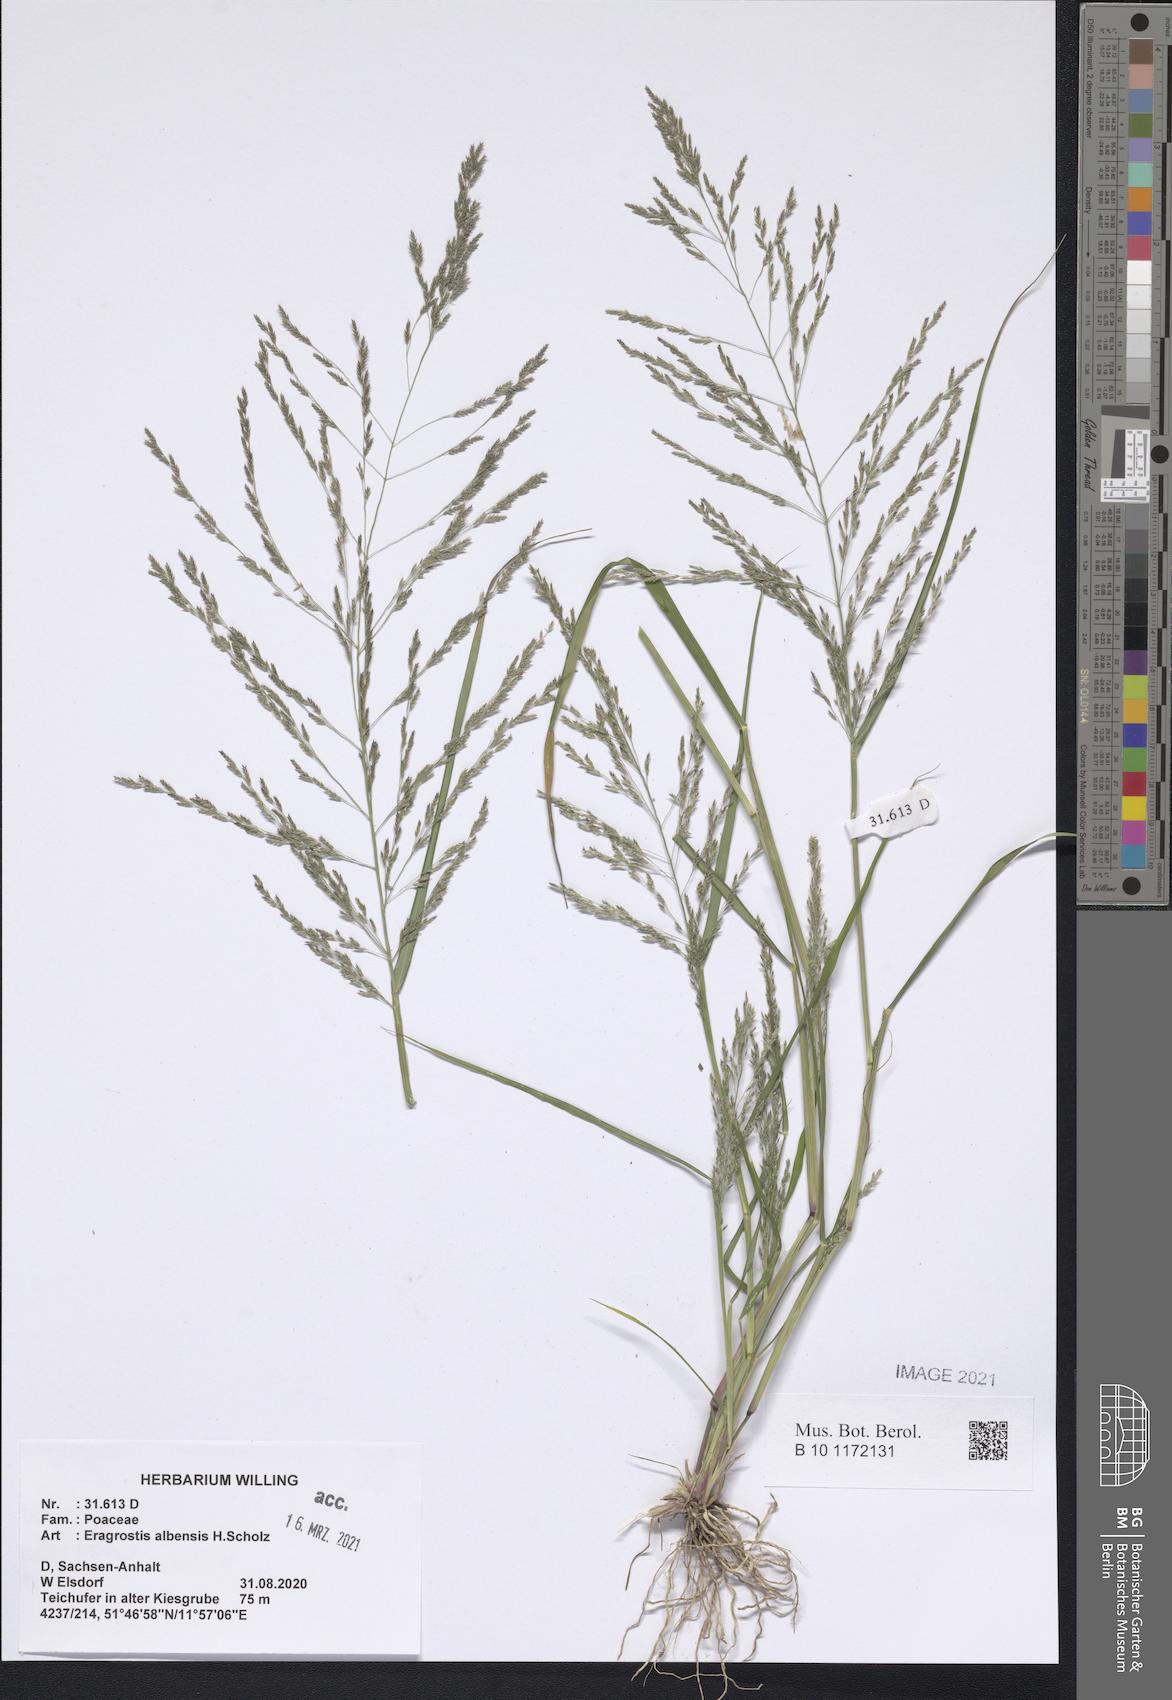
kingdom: Plantae
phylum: Tracheophyta
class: Liliopsida
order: Poales
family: Poaceae
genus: Eragrostis
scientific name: Eragrostis pilosa
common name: Indian lovegrass
